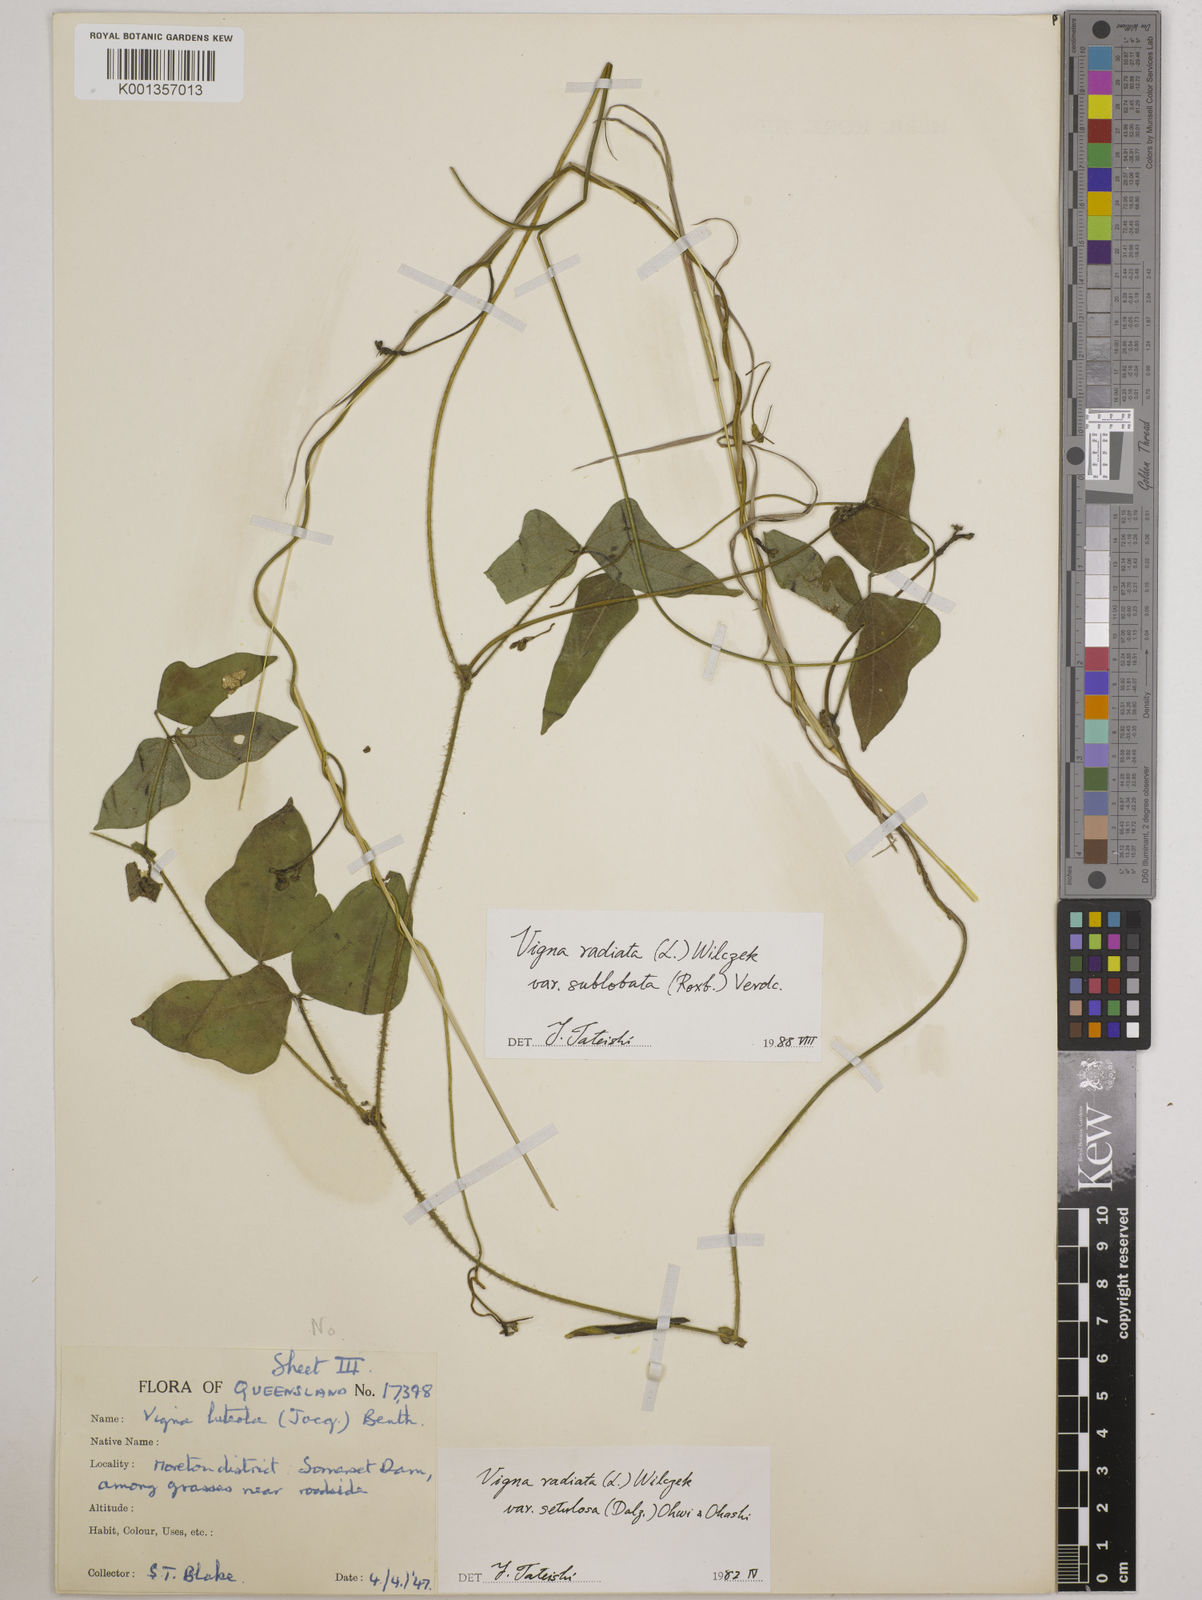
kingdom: Plantae
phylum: Tracheophyta
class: Magnoliopsida
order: Fabales
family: Fabaceae
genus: Vigna
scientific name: Vigna radiata
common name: Mung-bean
